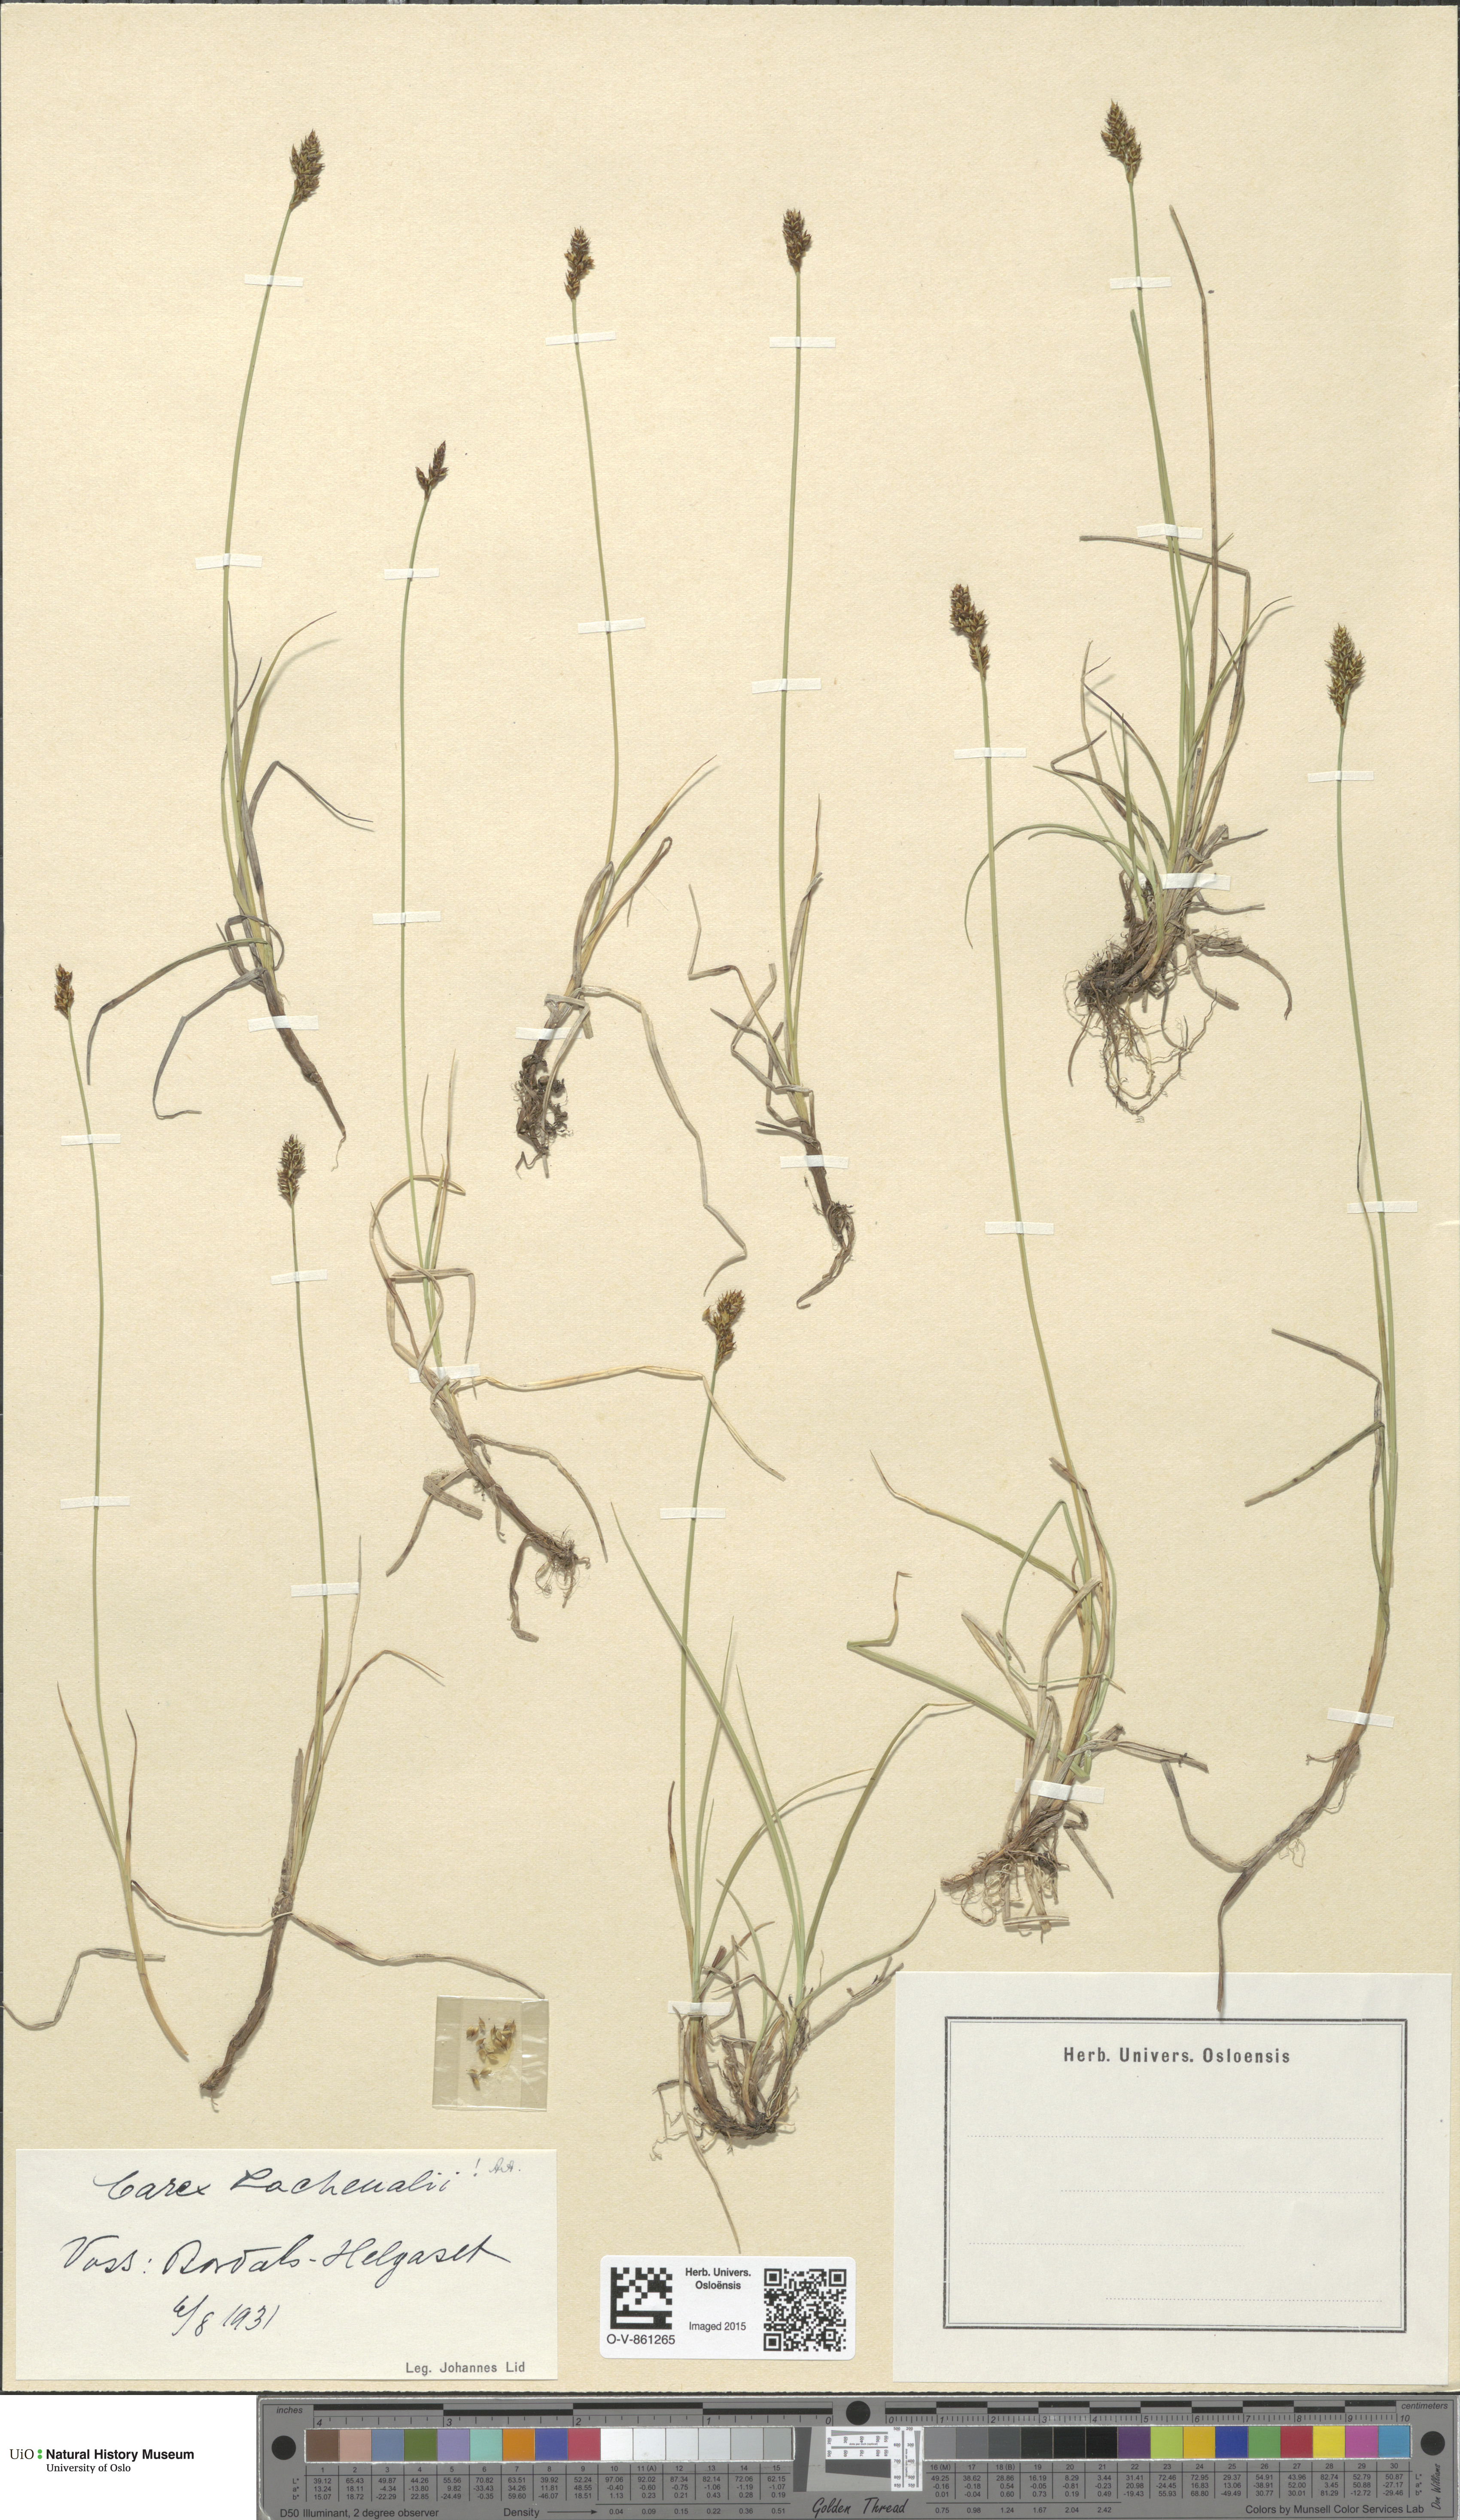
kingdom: Plantae
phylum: Tracheophyta
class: Liliopsida
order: Poales
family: Cyperaceae
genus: Carex
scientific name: Carex lachenalii
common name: Hare's-foot sedge
